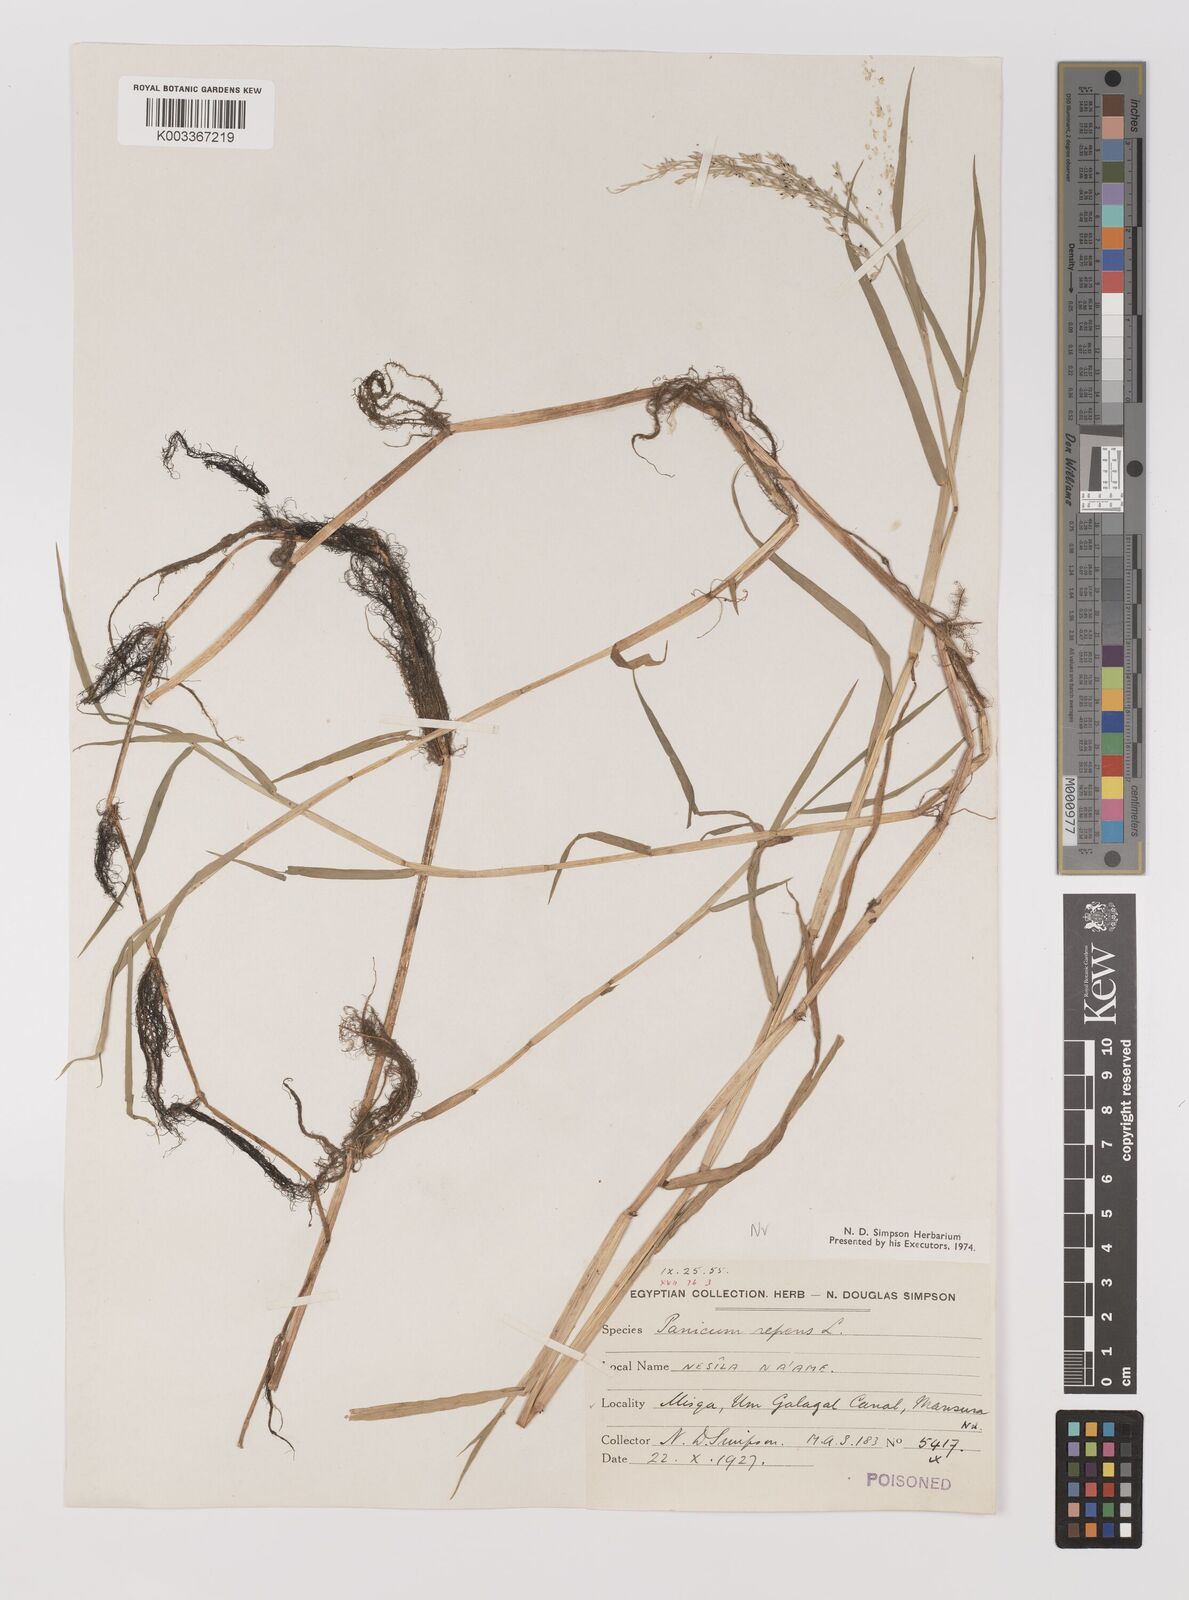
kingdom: Plantae
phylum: Tracheophyta
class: Liliopsida
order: Poales
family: Poaceae
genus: Panicum
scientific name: Panicum repens
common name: Torpedo grass
